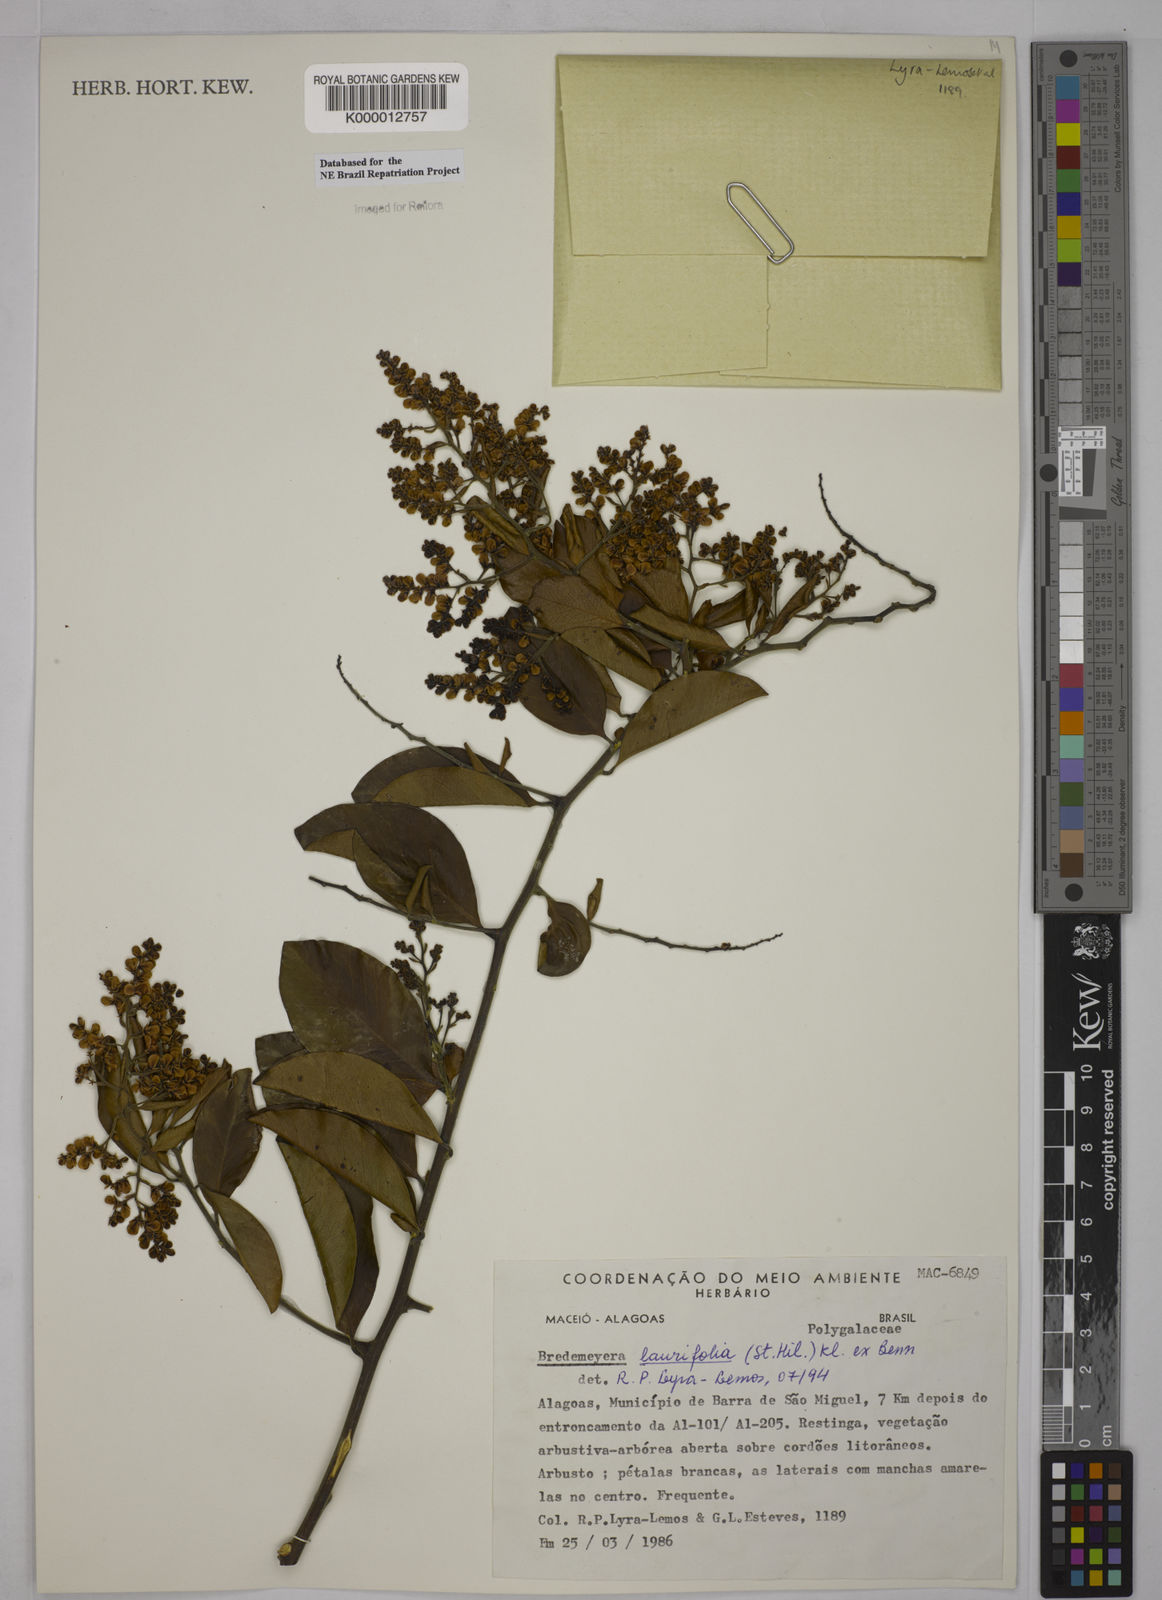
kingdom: Plantae
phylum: Tracheophyta
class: Magnoliopsida
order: Fabales
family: Polygalaceae
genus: Bredemeyera
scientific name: Bredemeyera laurifolia
